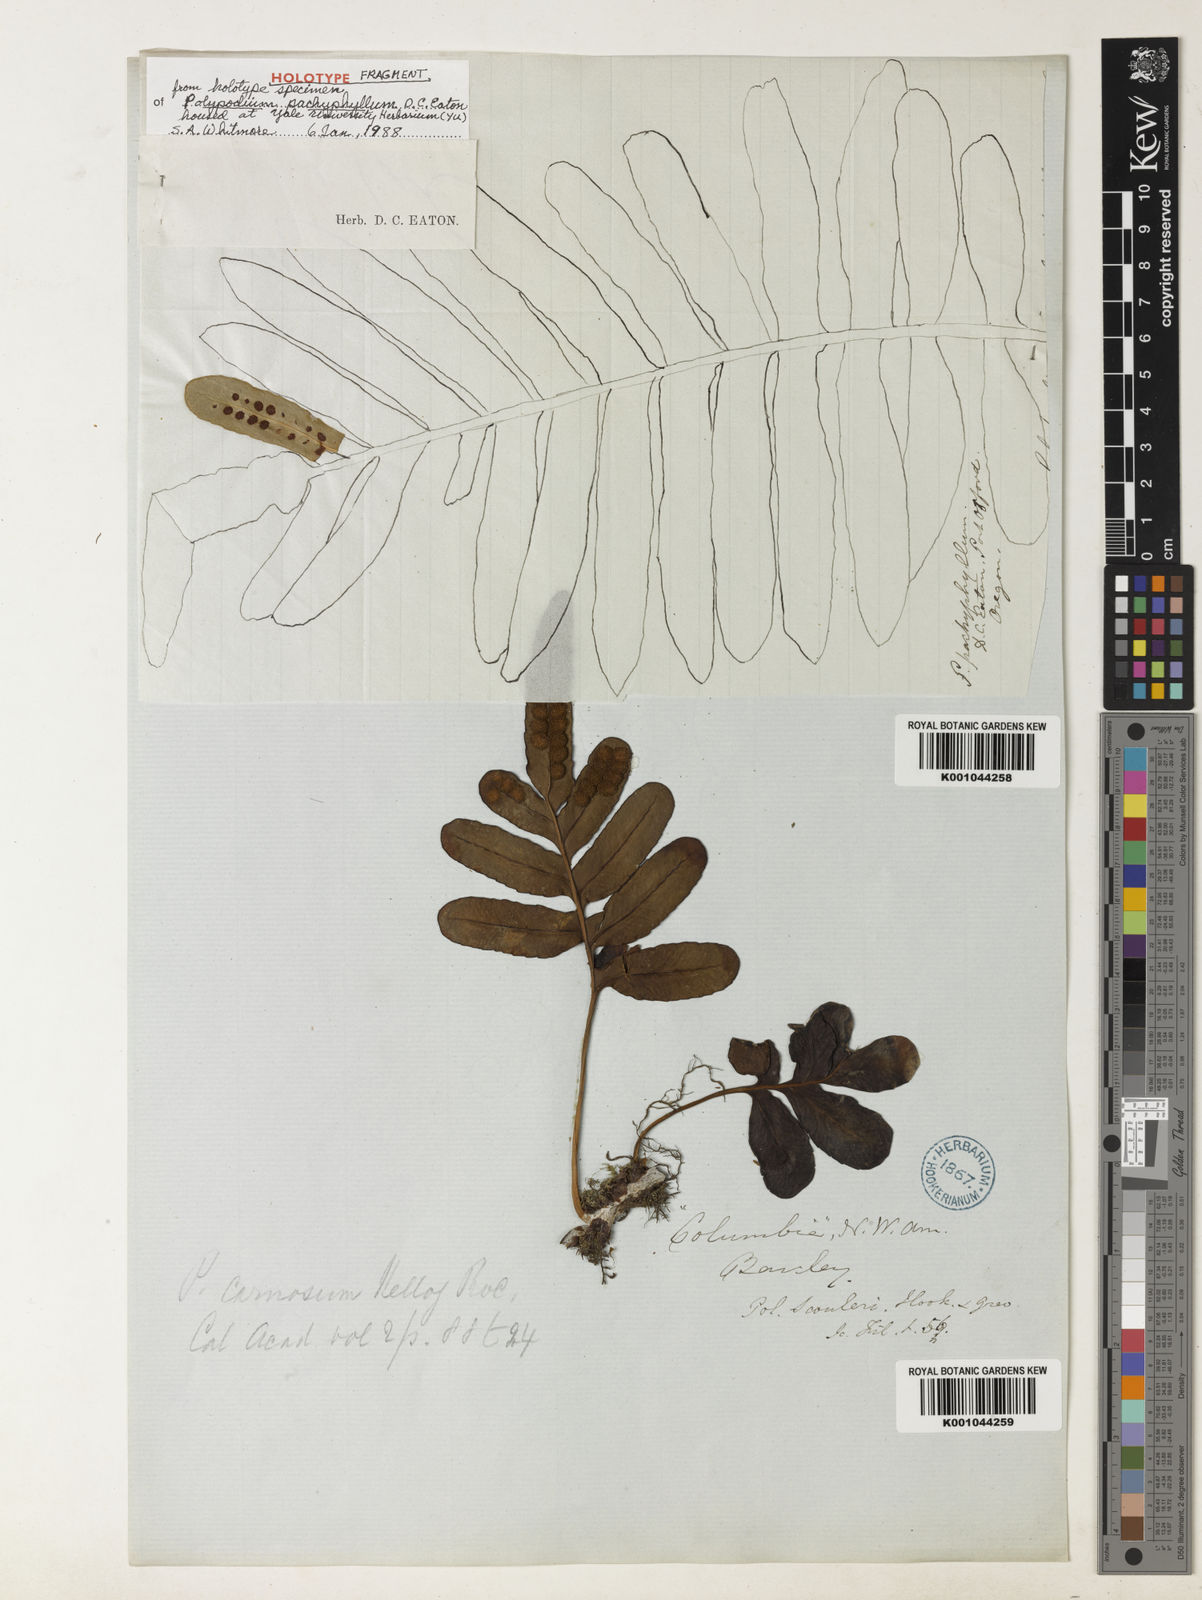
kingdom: Plantae
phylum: Tracheophyta
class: Polypodiopsida
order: Polypodiales
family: Polypodiaceae
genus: Polypodium
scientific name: Polypodium scouleri
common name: Scouler's polypody
